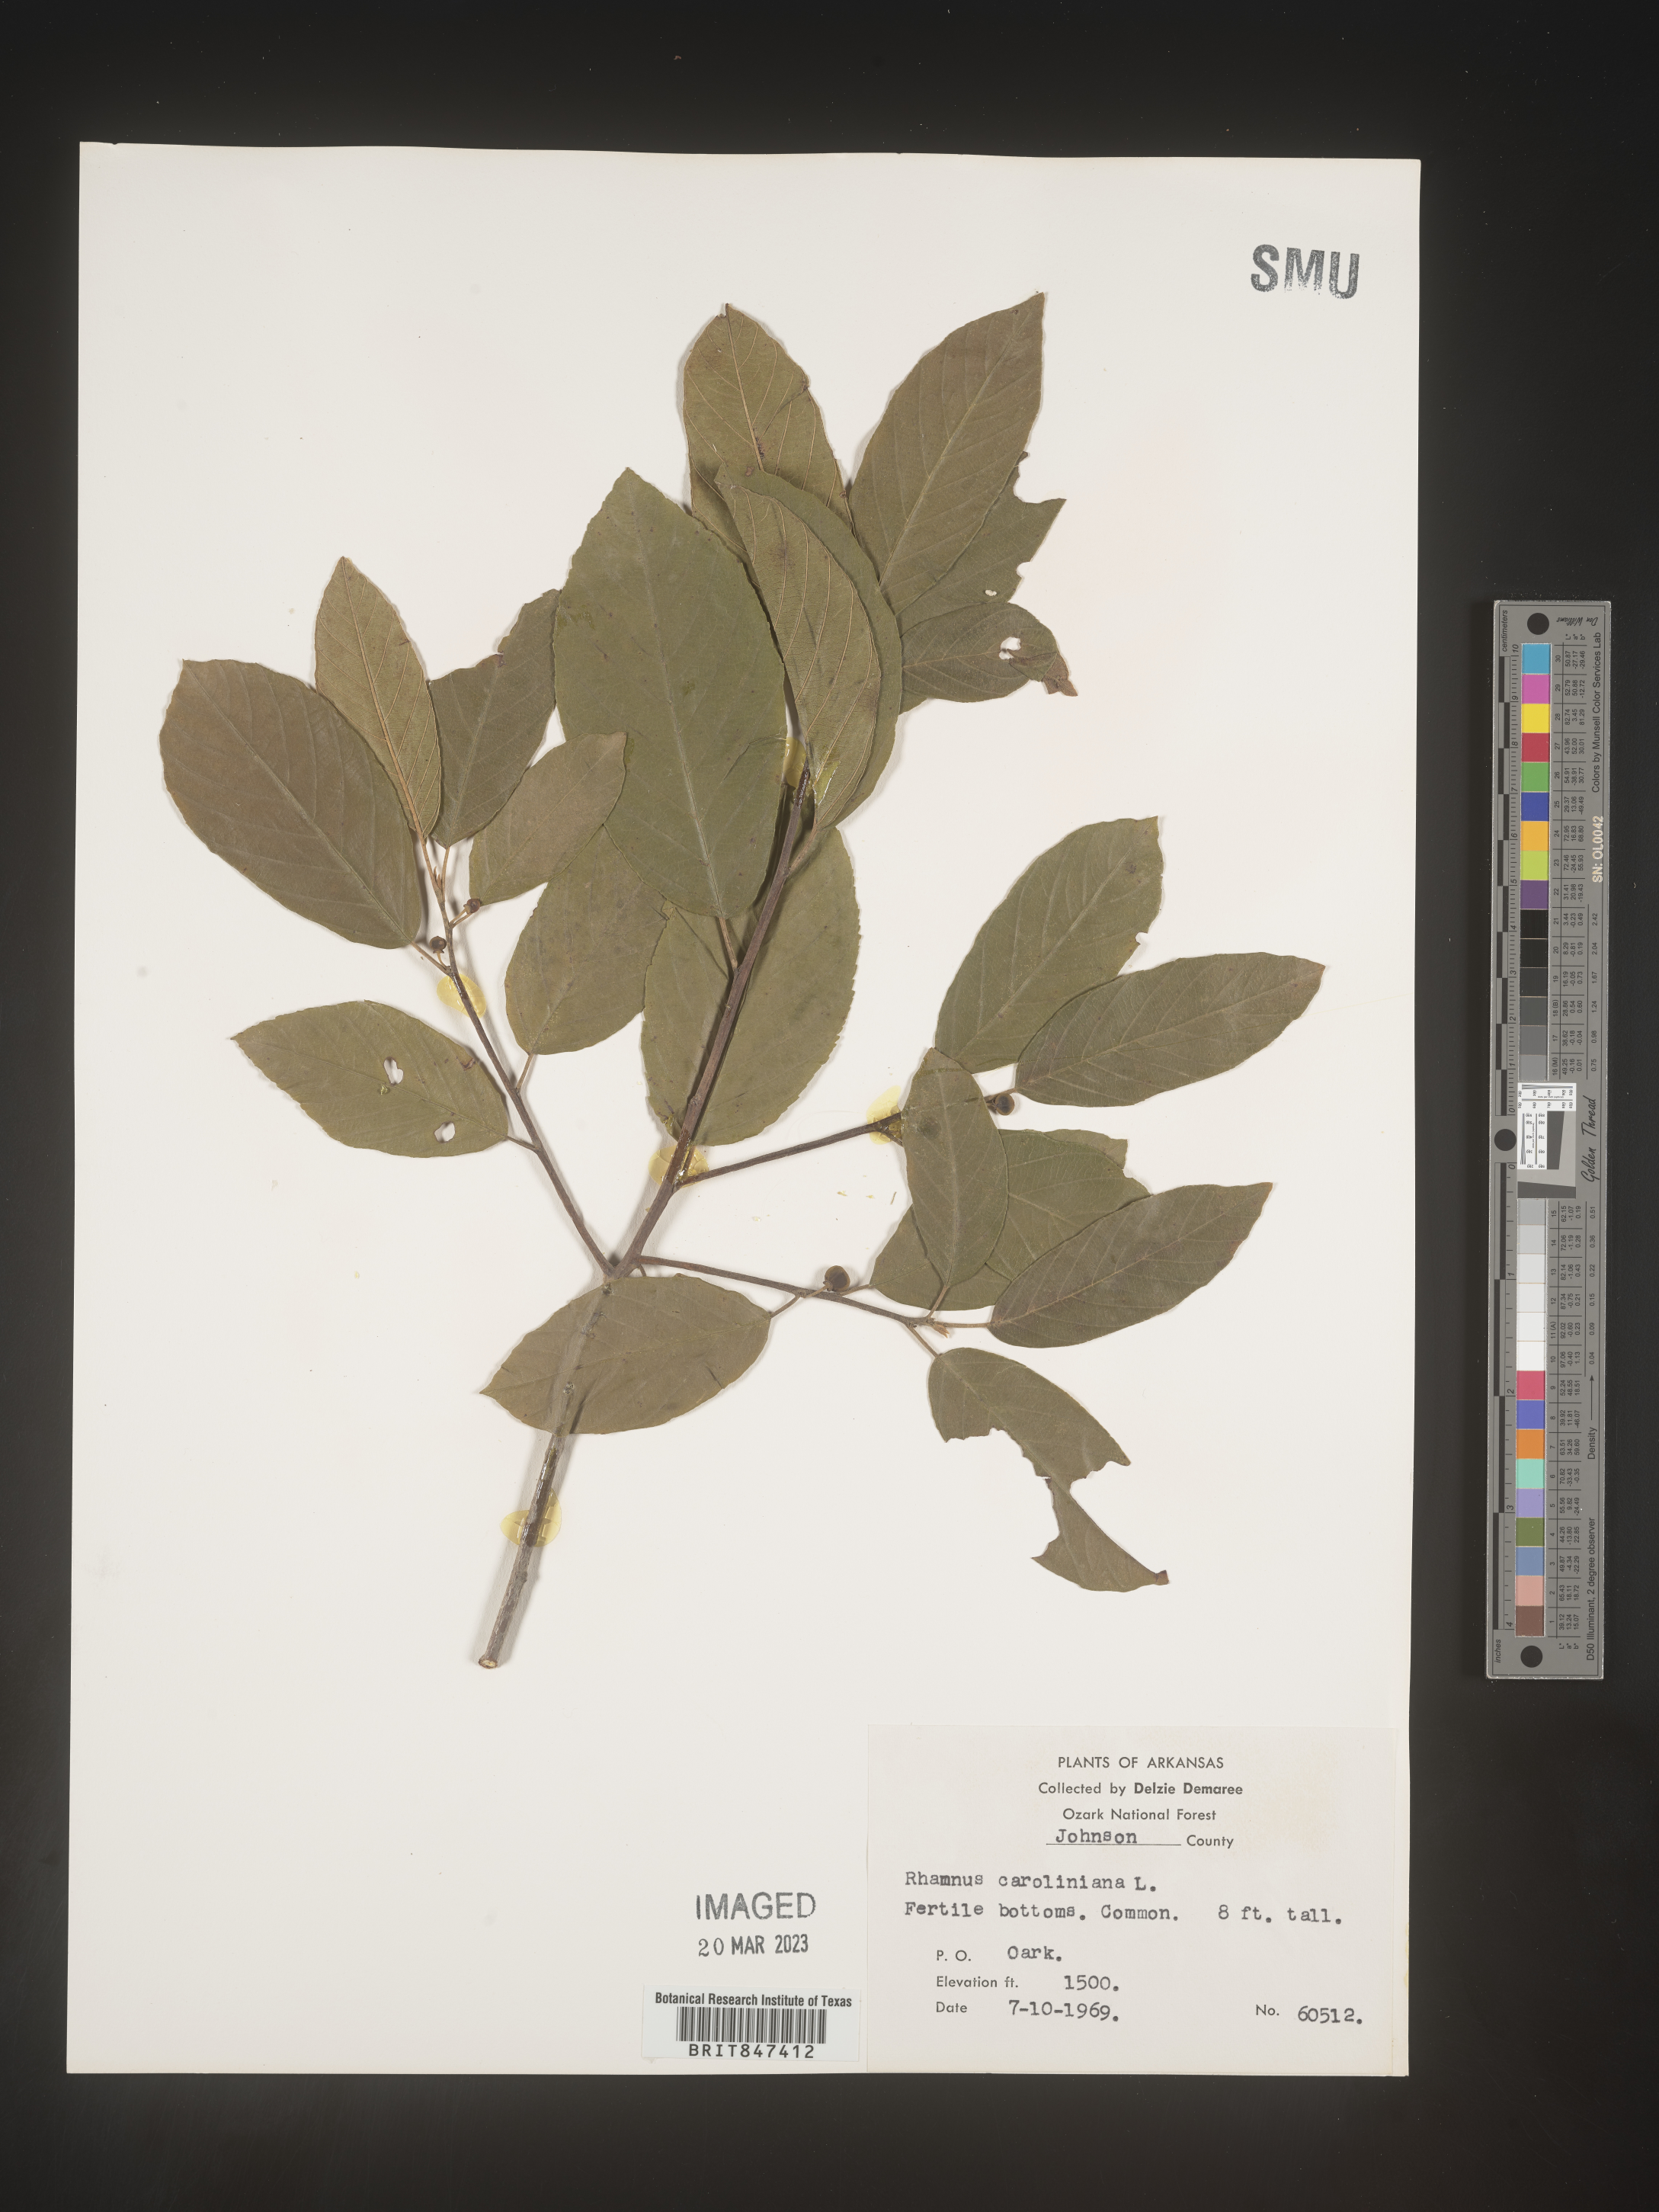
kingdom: Plantae
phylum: Tracheophyta
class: Magnoliopsida
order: Rosales
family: Rhamnaceae
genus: Frangula
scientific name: Frangula caroliniana
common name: Carolina buckthorn
